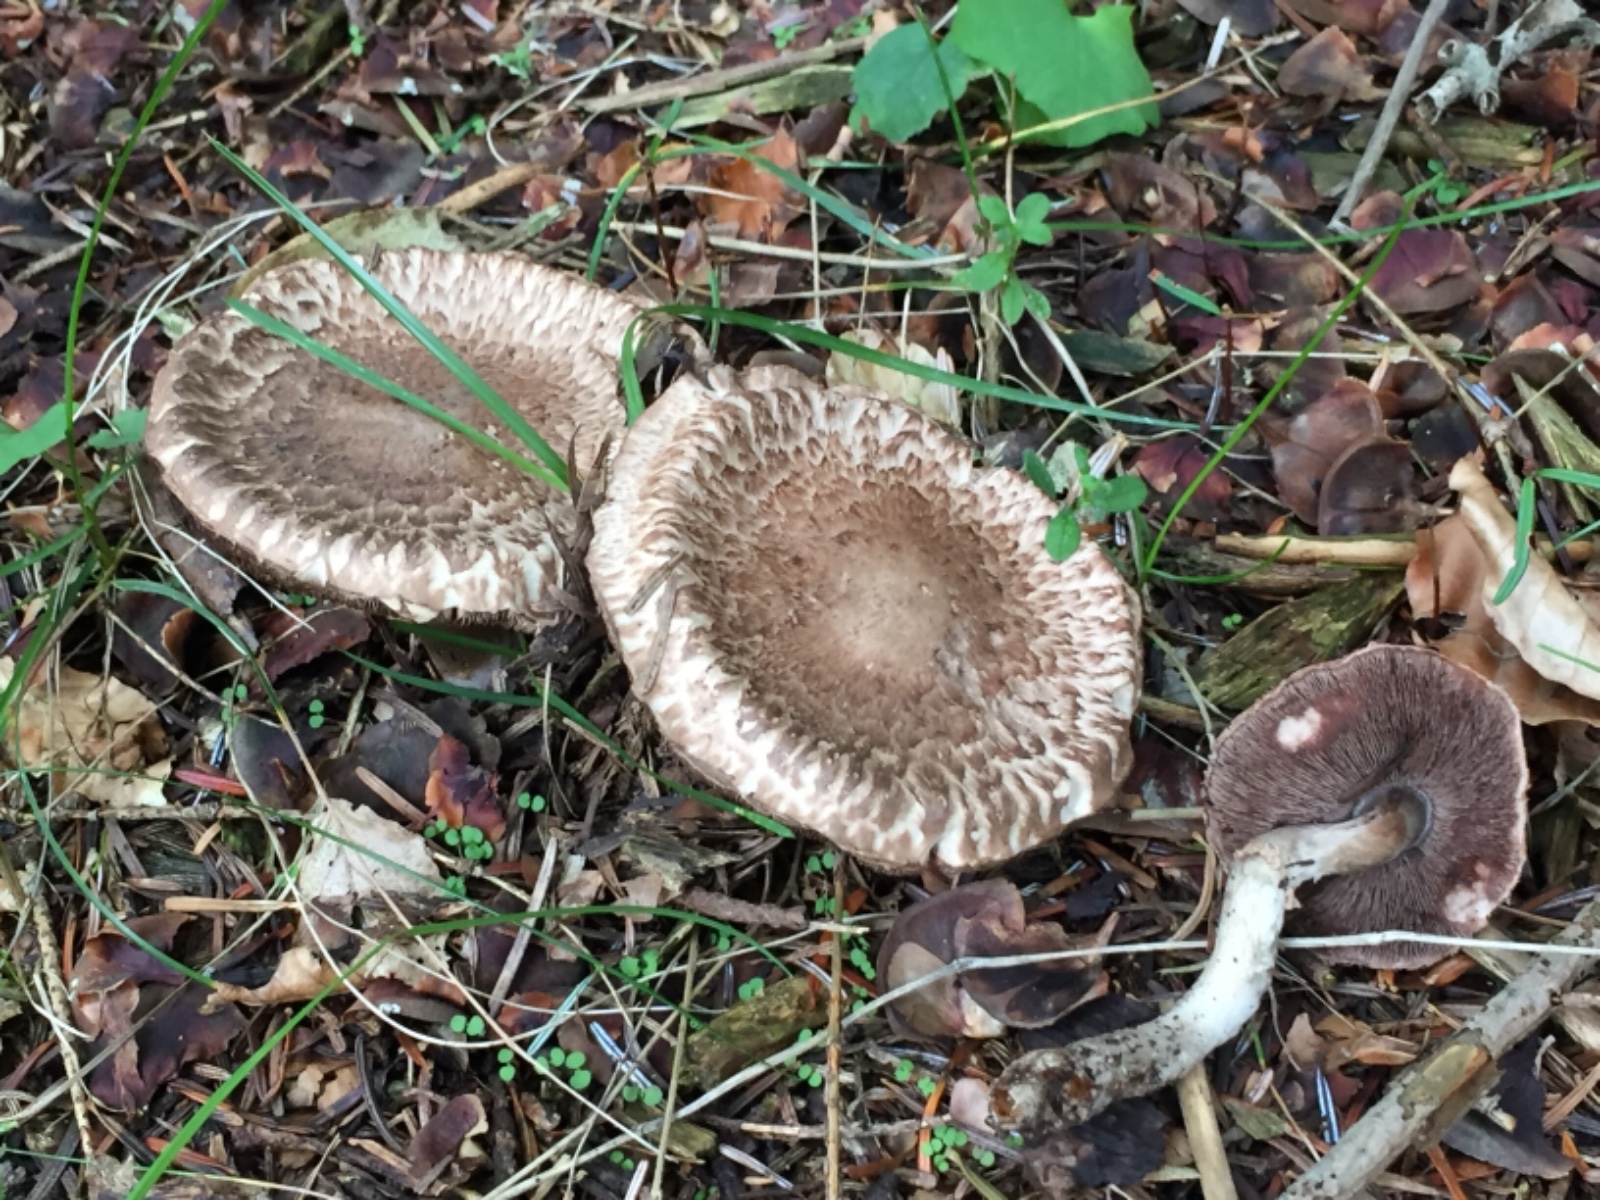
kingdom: Fungi
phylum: Basidiomycota
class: Agaricomycetes
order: Agaricales
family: Agaricaceae
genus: Agaricus
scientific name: Agaricus
